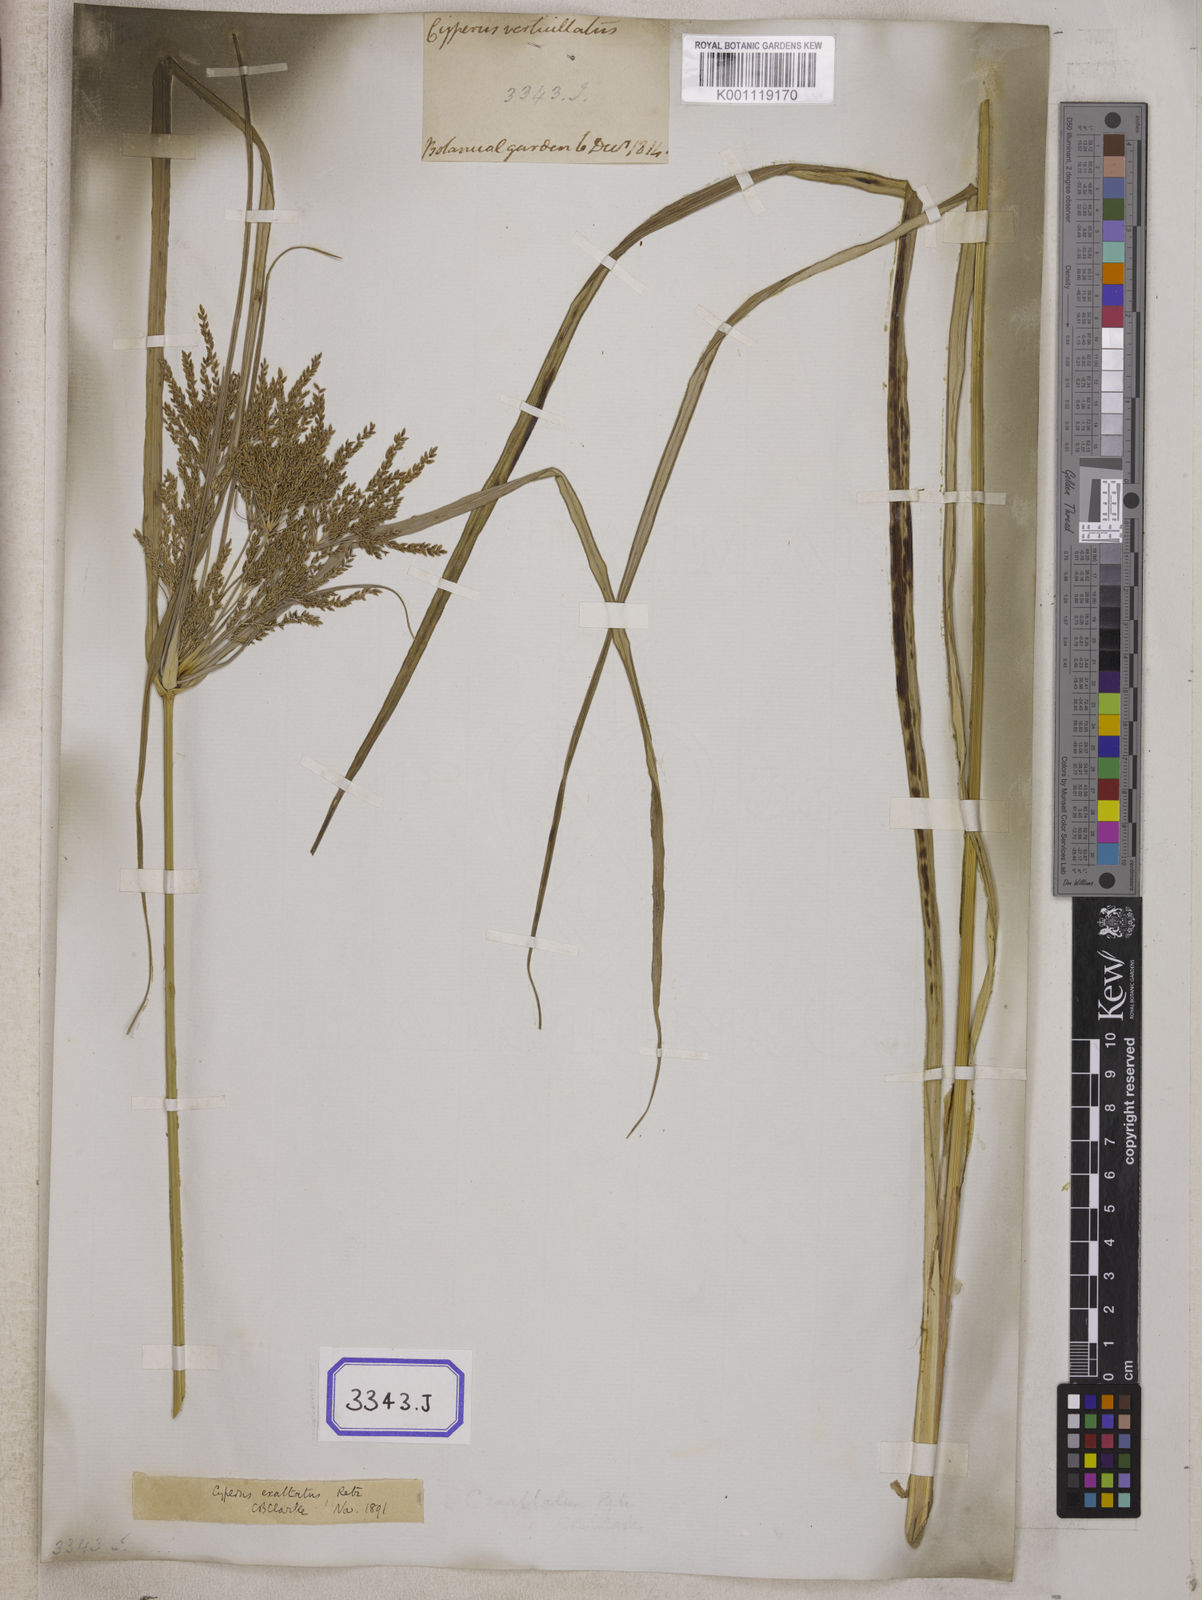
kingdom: Plantae
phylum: Tracheophyta
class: Liliopsida
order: Poales
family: Cyperaceae
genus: Cyperus
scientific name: Cyperus
